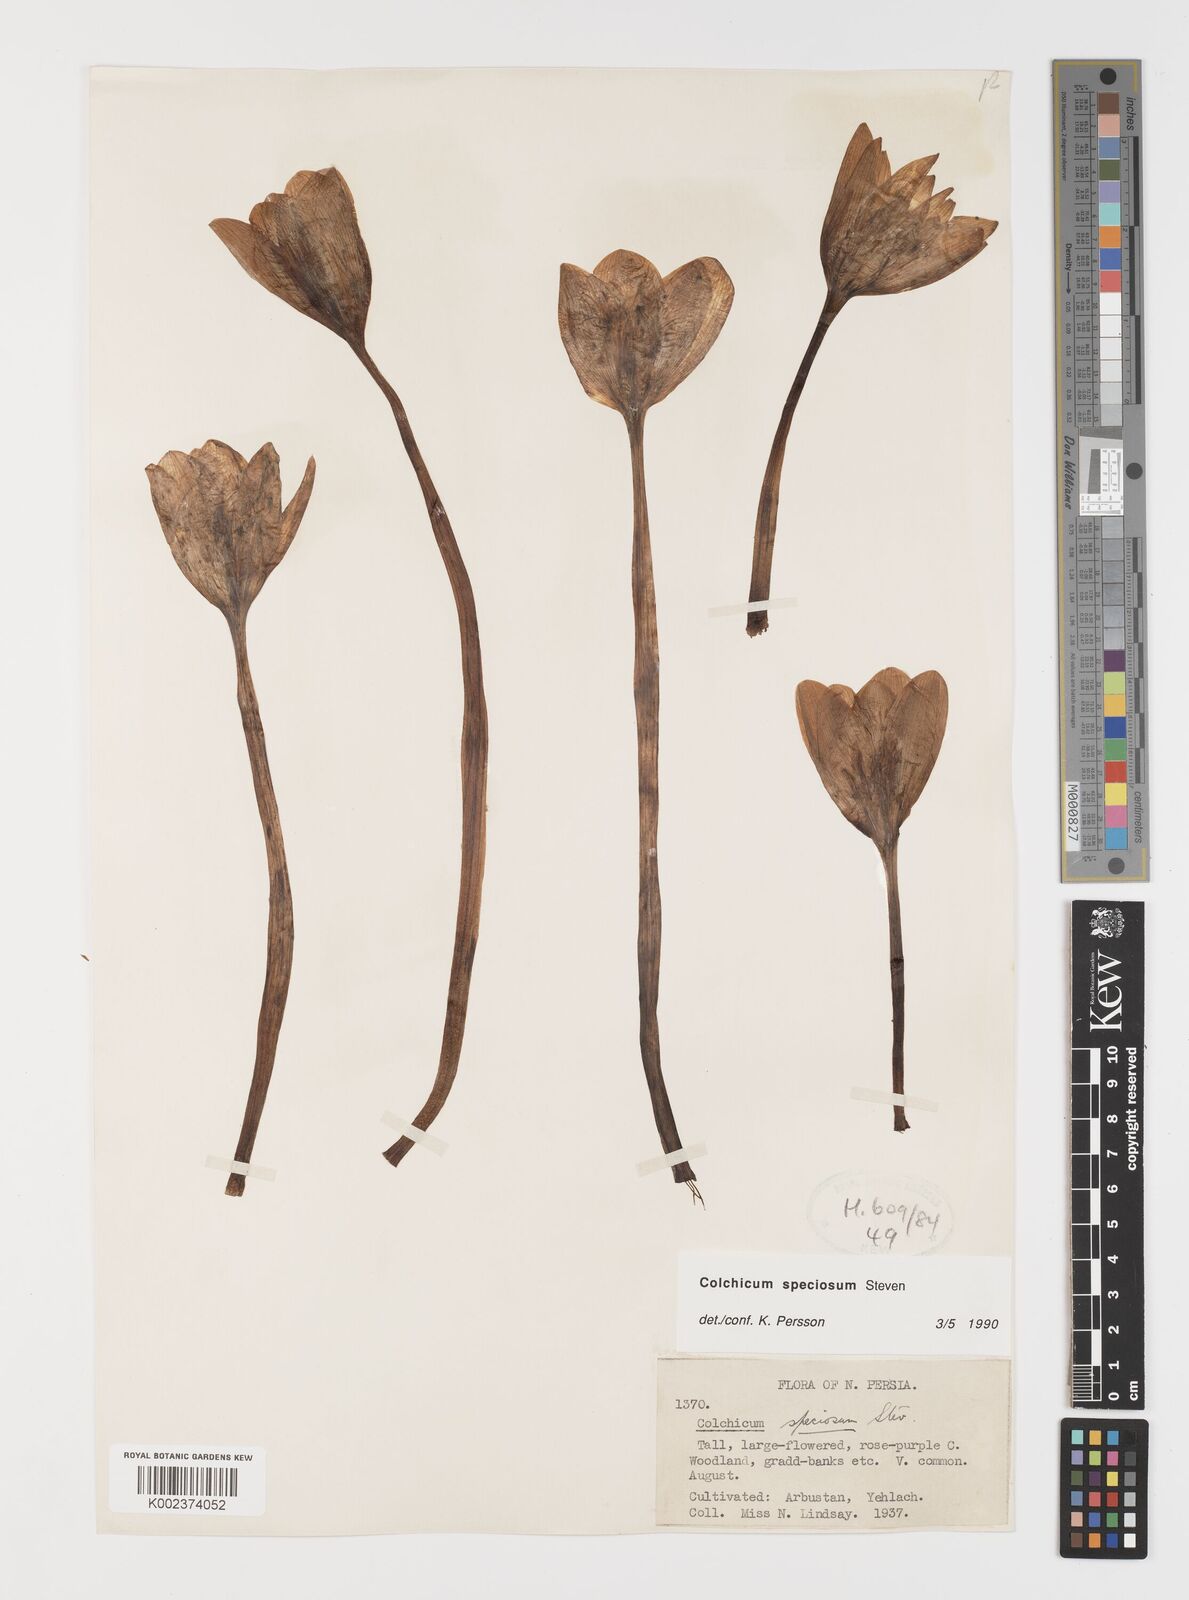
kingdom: Plantae
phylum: Tracheophyta
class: Liliopsida
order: Liliales
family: Colchicaceae
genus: Colchicum
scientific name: Colchicum speciosum
